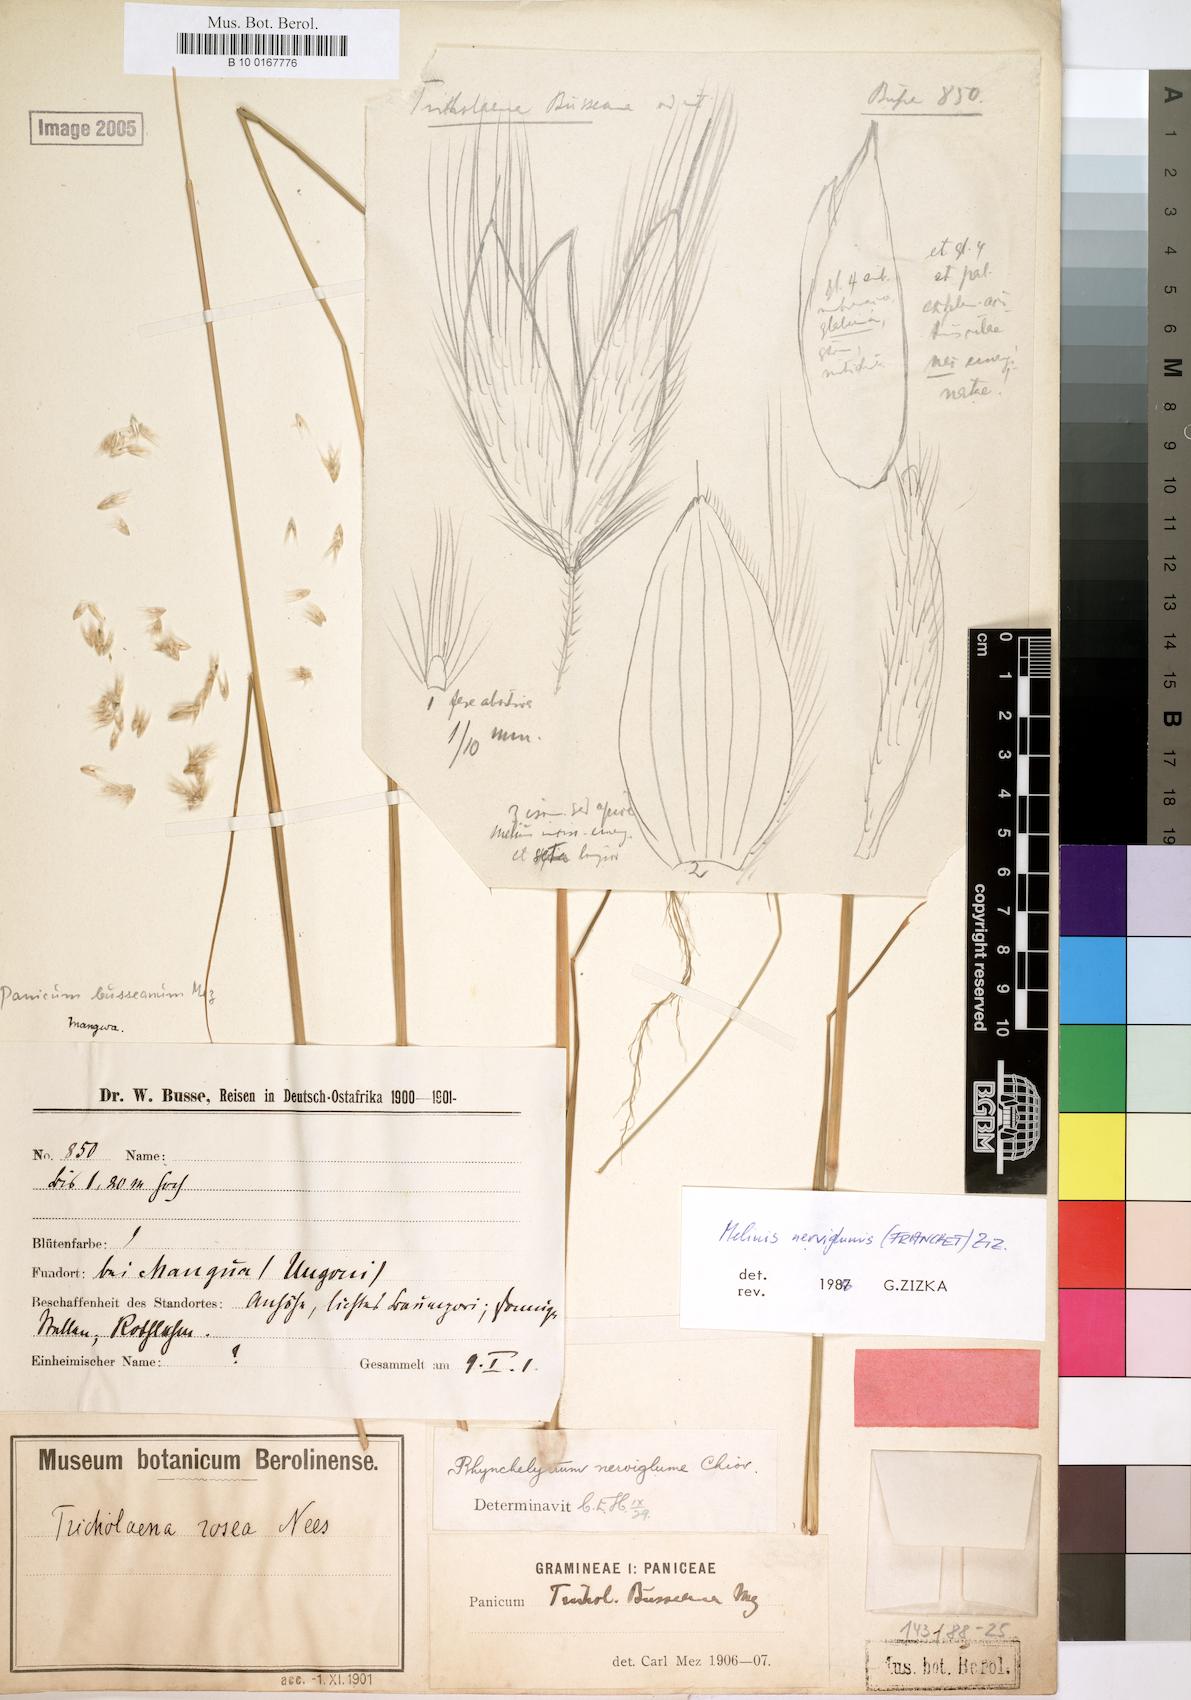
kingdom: Plantae
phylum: Tracheophyta
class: Liliopsida
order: Poales
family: Poaceae
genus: Melinis
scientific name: Melinis nerviglumis
